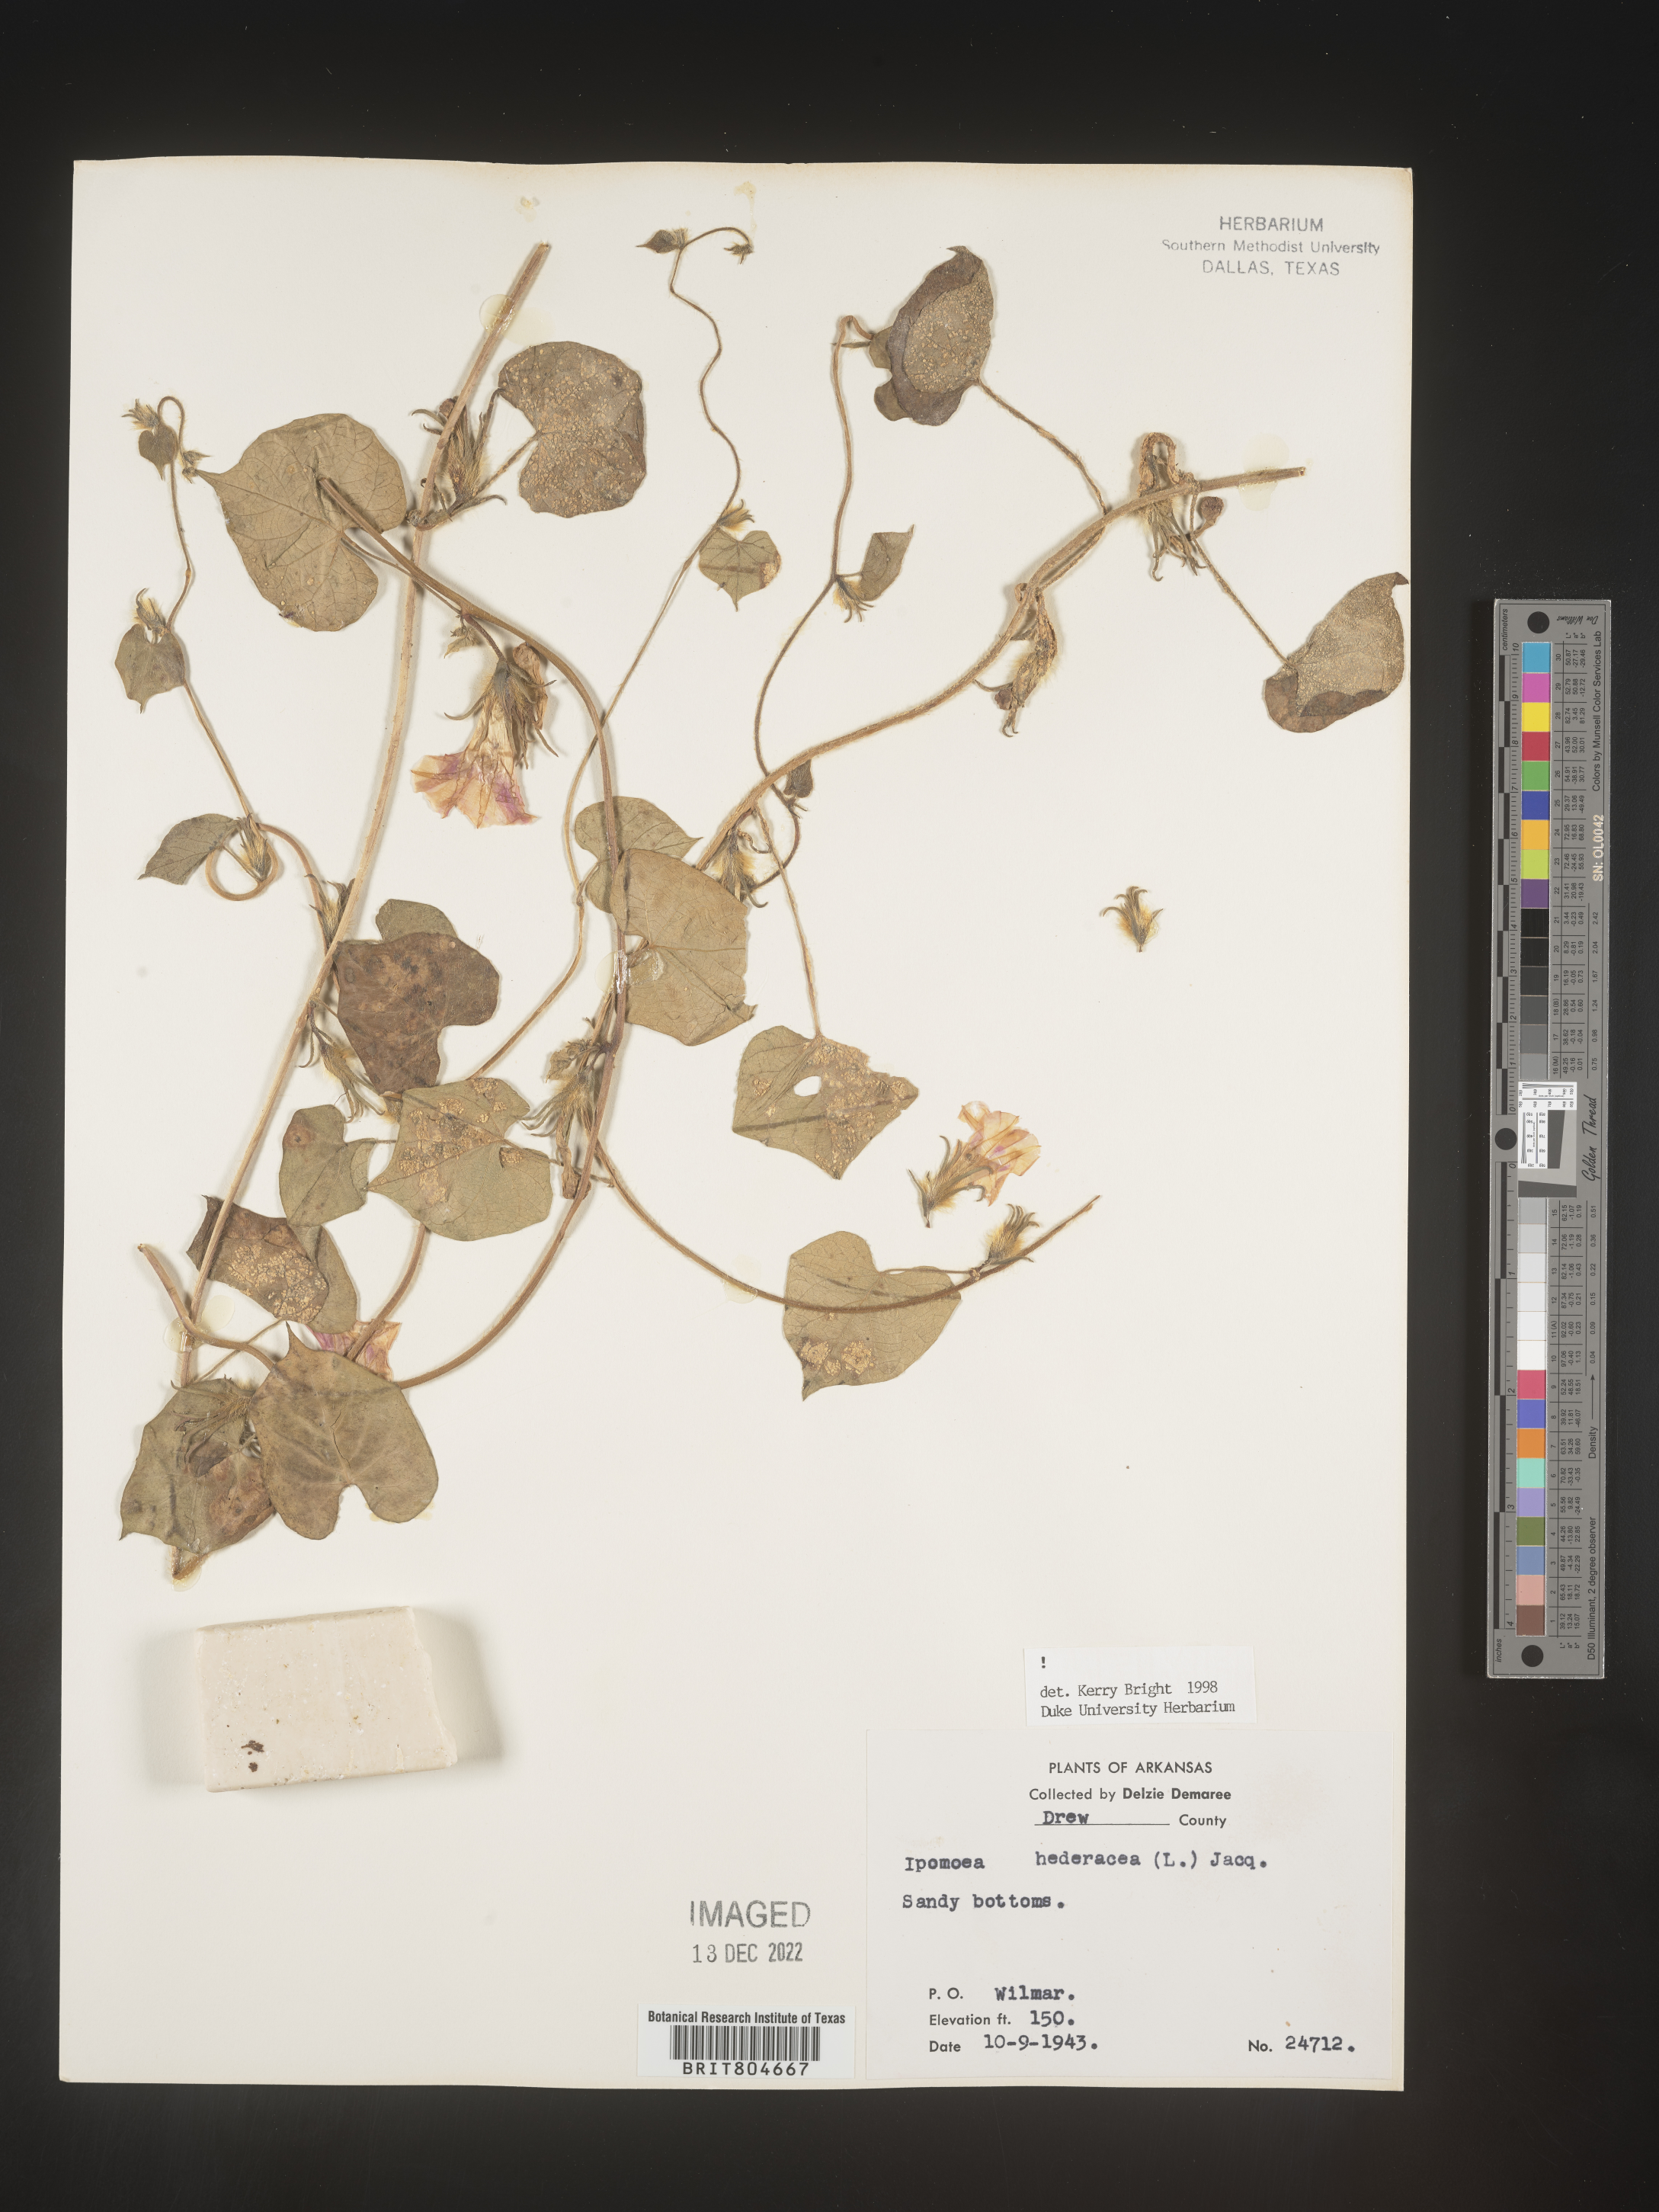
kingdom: Plantae
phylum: Tracheophyta
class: Magnoliopsida
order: Solanales
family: Convolvulaceae
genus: Ipomoea
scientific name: Ipomoea hederacea
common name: Ivy-leaved morning-glory
